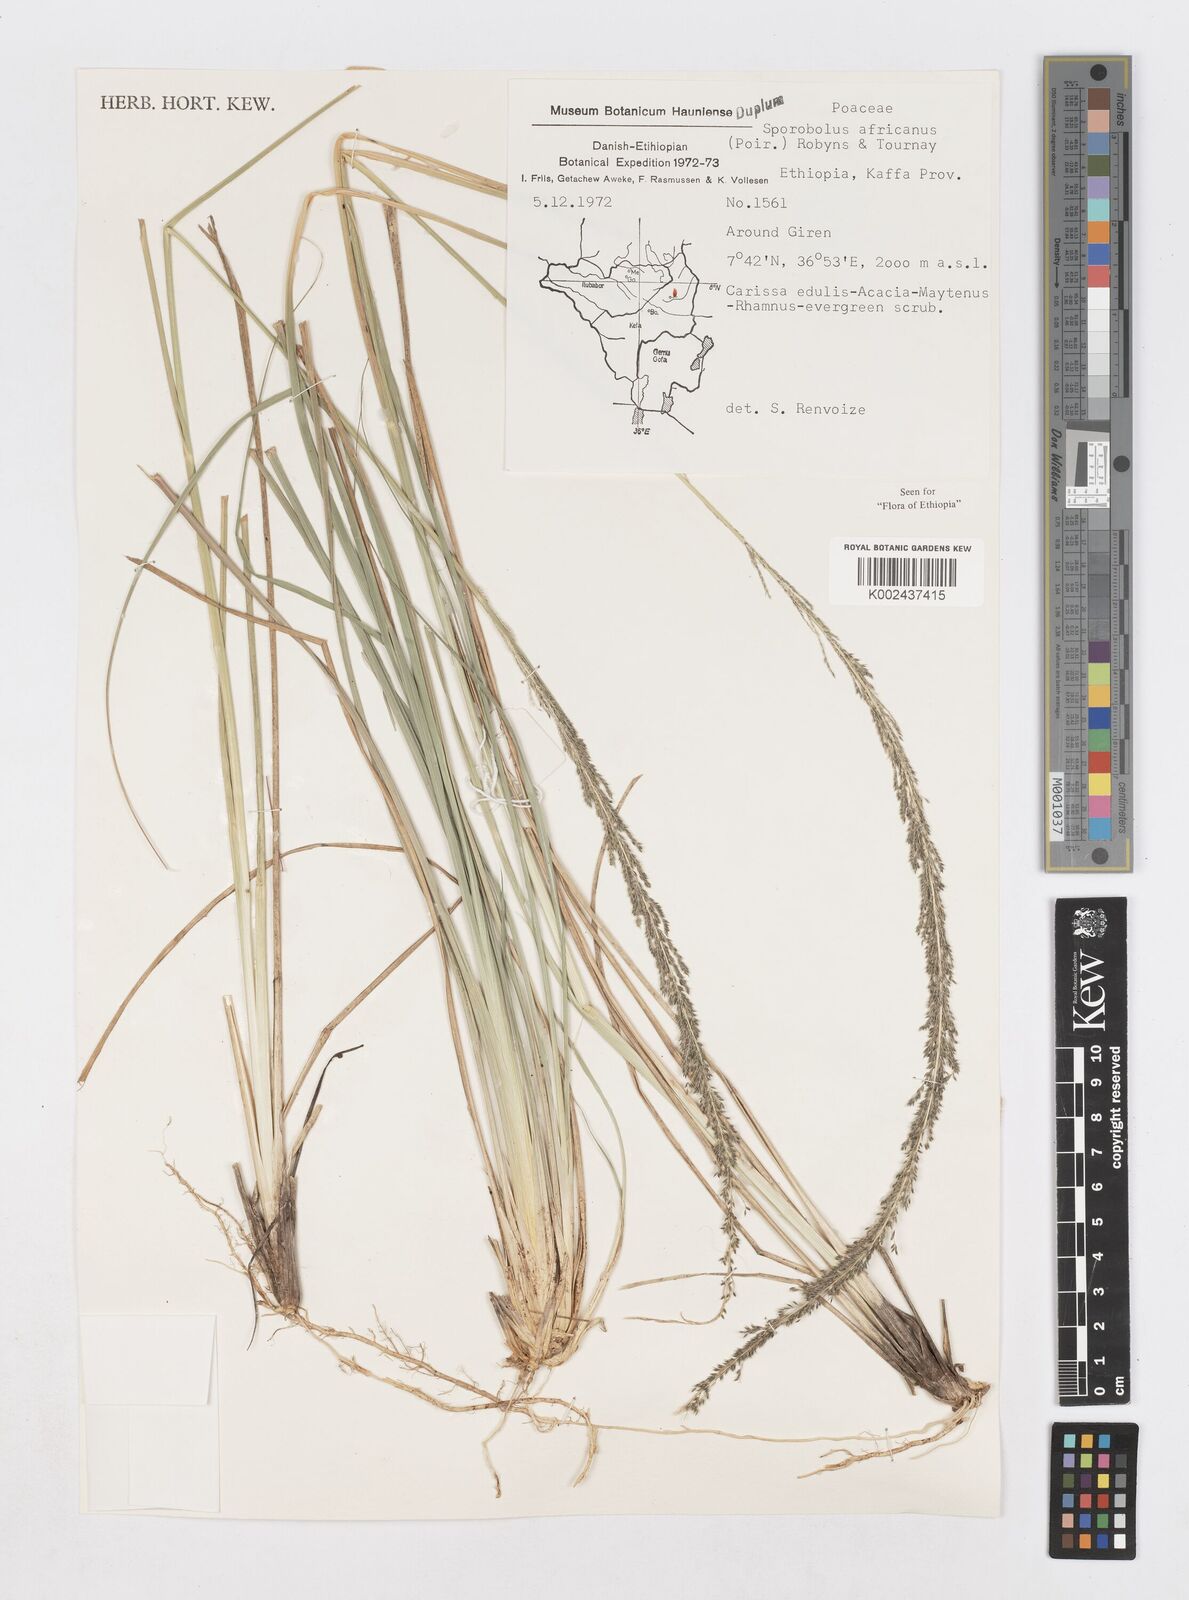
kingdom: Plantae
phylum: Tracheophyta
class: Liliopsida
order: Poales
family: Poaceae
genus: Sporobolus
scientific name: Sporobolus africanus
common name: African dropseed
